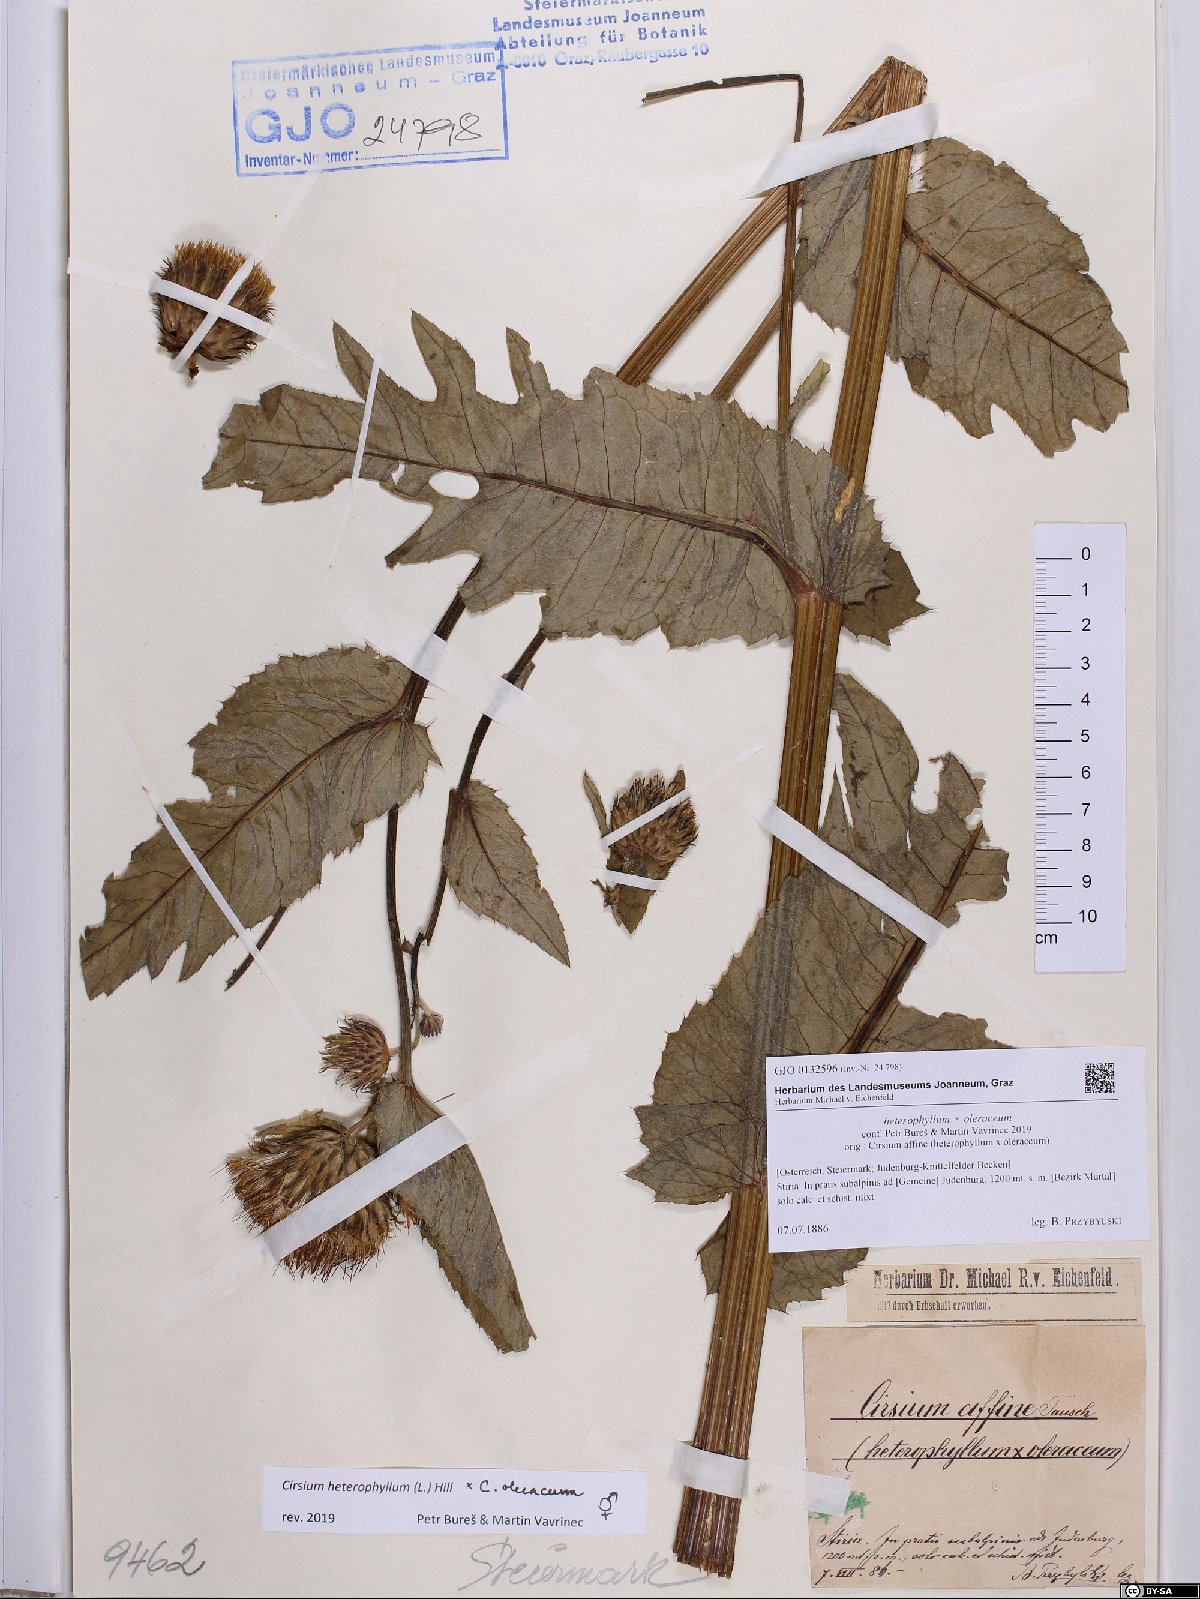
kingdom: Plantae
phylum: Tracheophyta
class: Magnoliopsida
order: Asterales
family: Asteraceae
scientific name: Asteraceae
